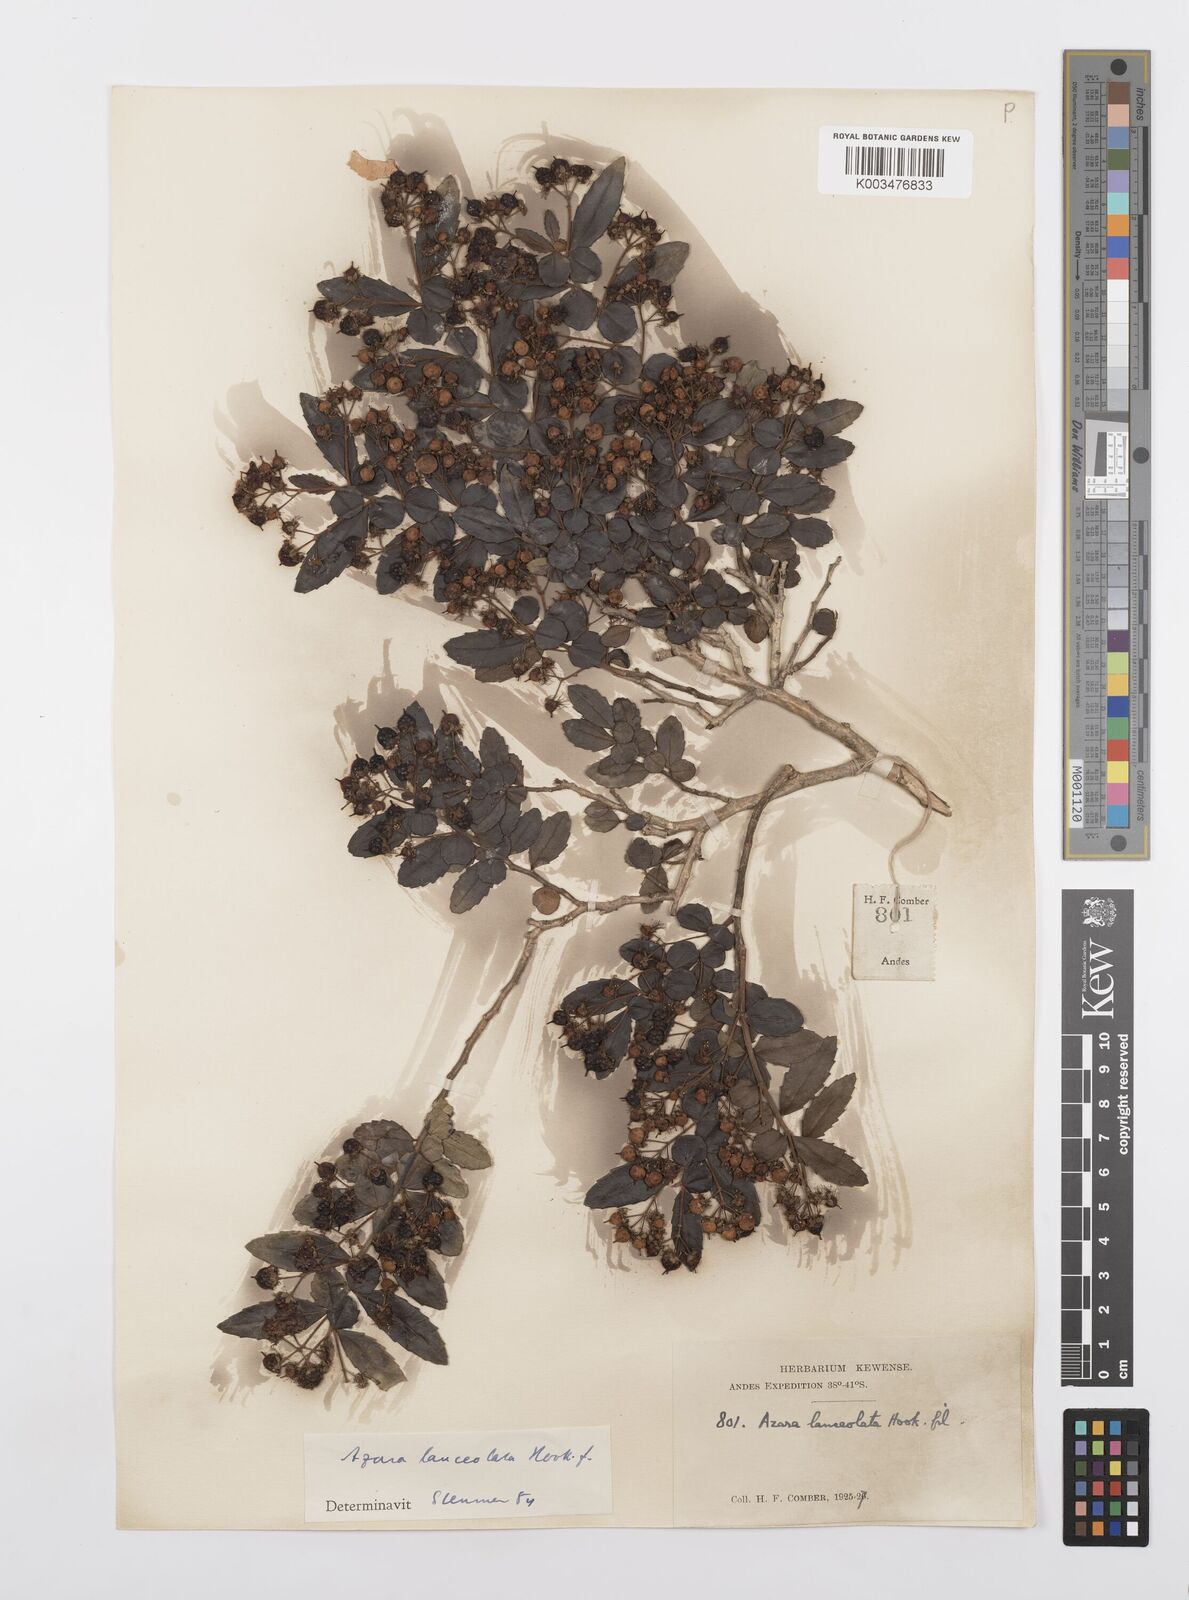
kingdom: Plantae
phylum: Tracheophyta
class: Magnoliopsida
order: Malpighiales
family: Salicaceae
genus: Azara
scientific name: Azara lanceolata
